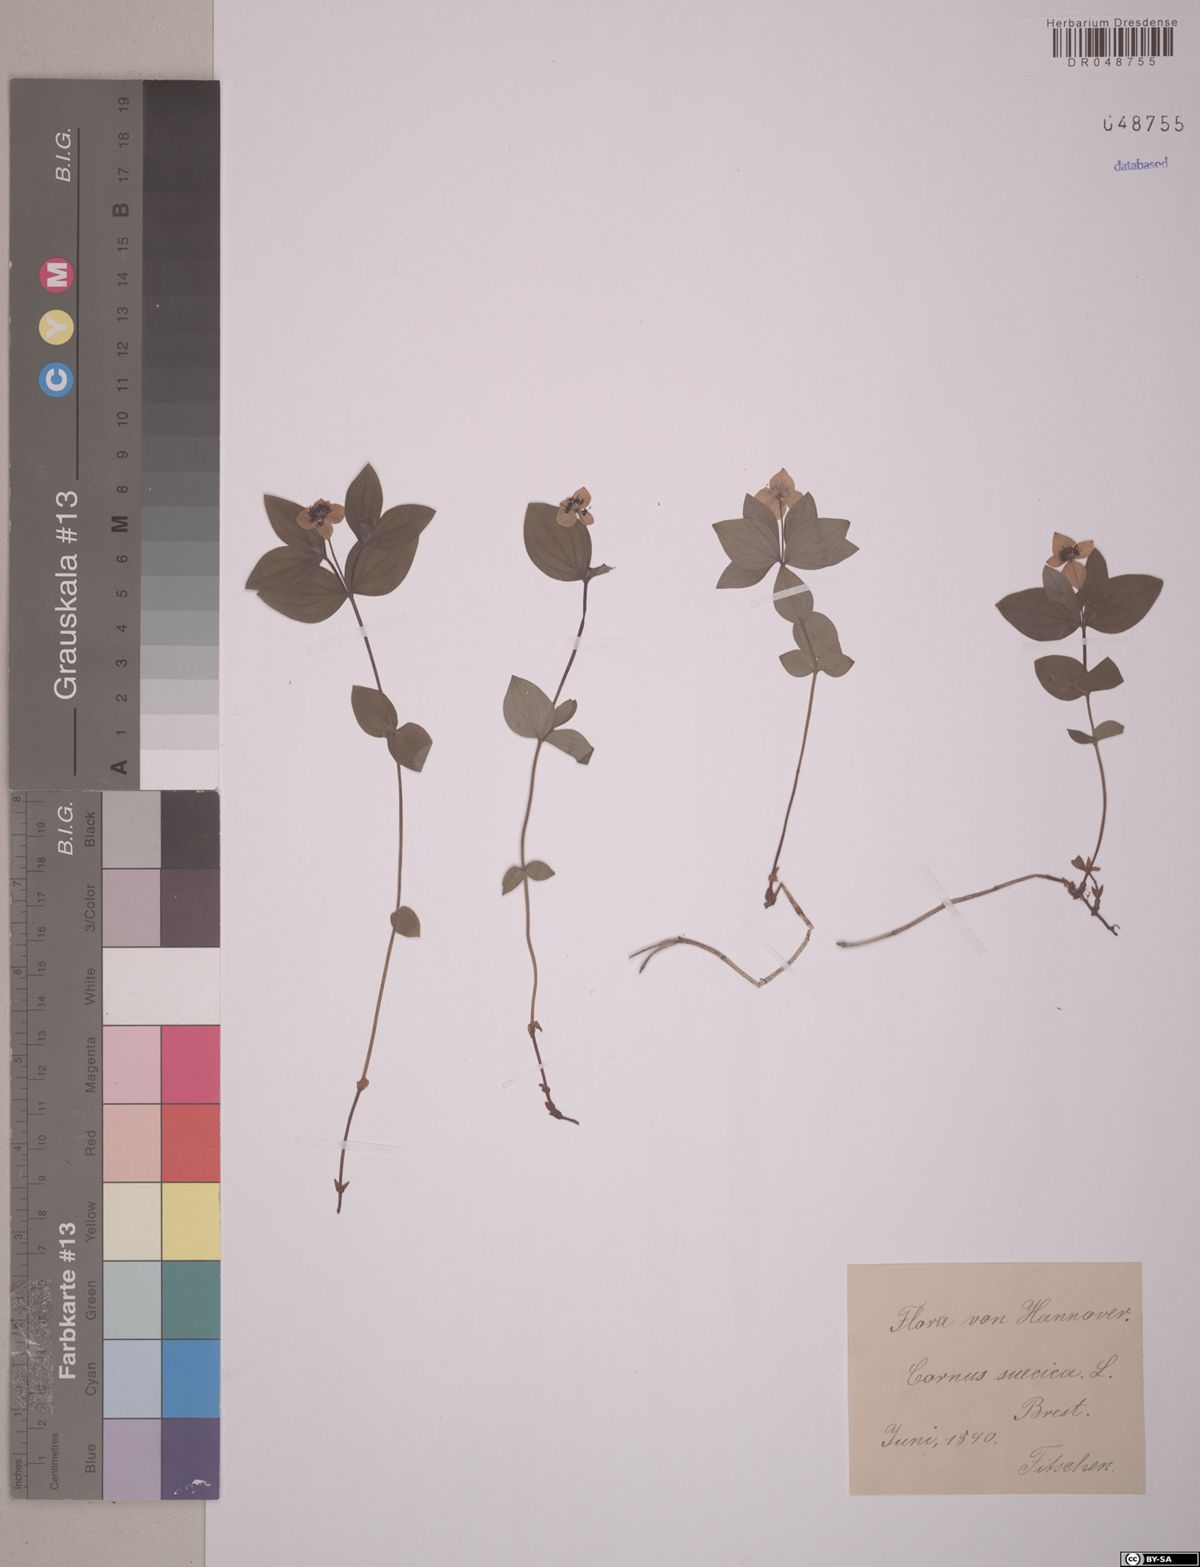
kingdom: Plantae
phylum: Tracheophyta
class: Magnoliopsida
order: Cornales
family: Cornaceae
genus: Cornus
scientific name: Cornus suecica
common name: Dwarf cornel
